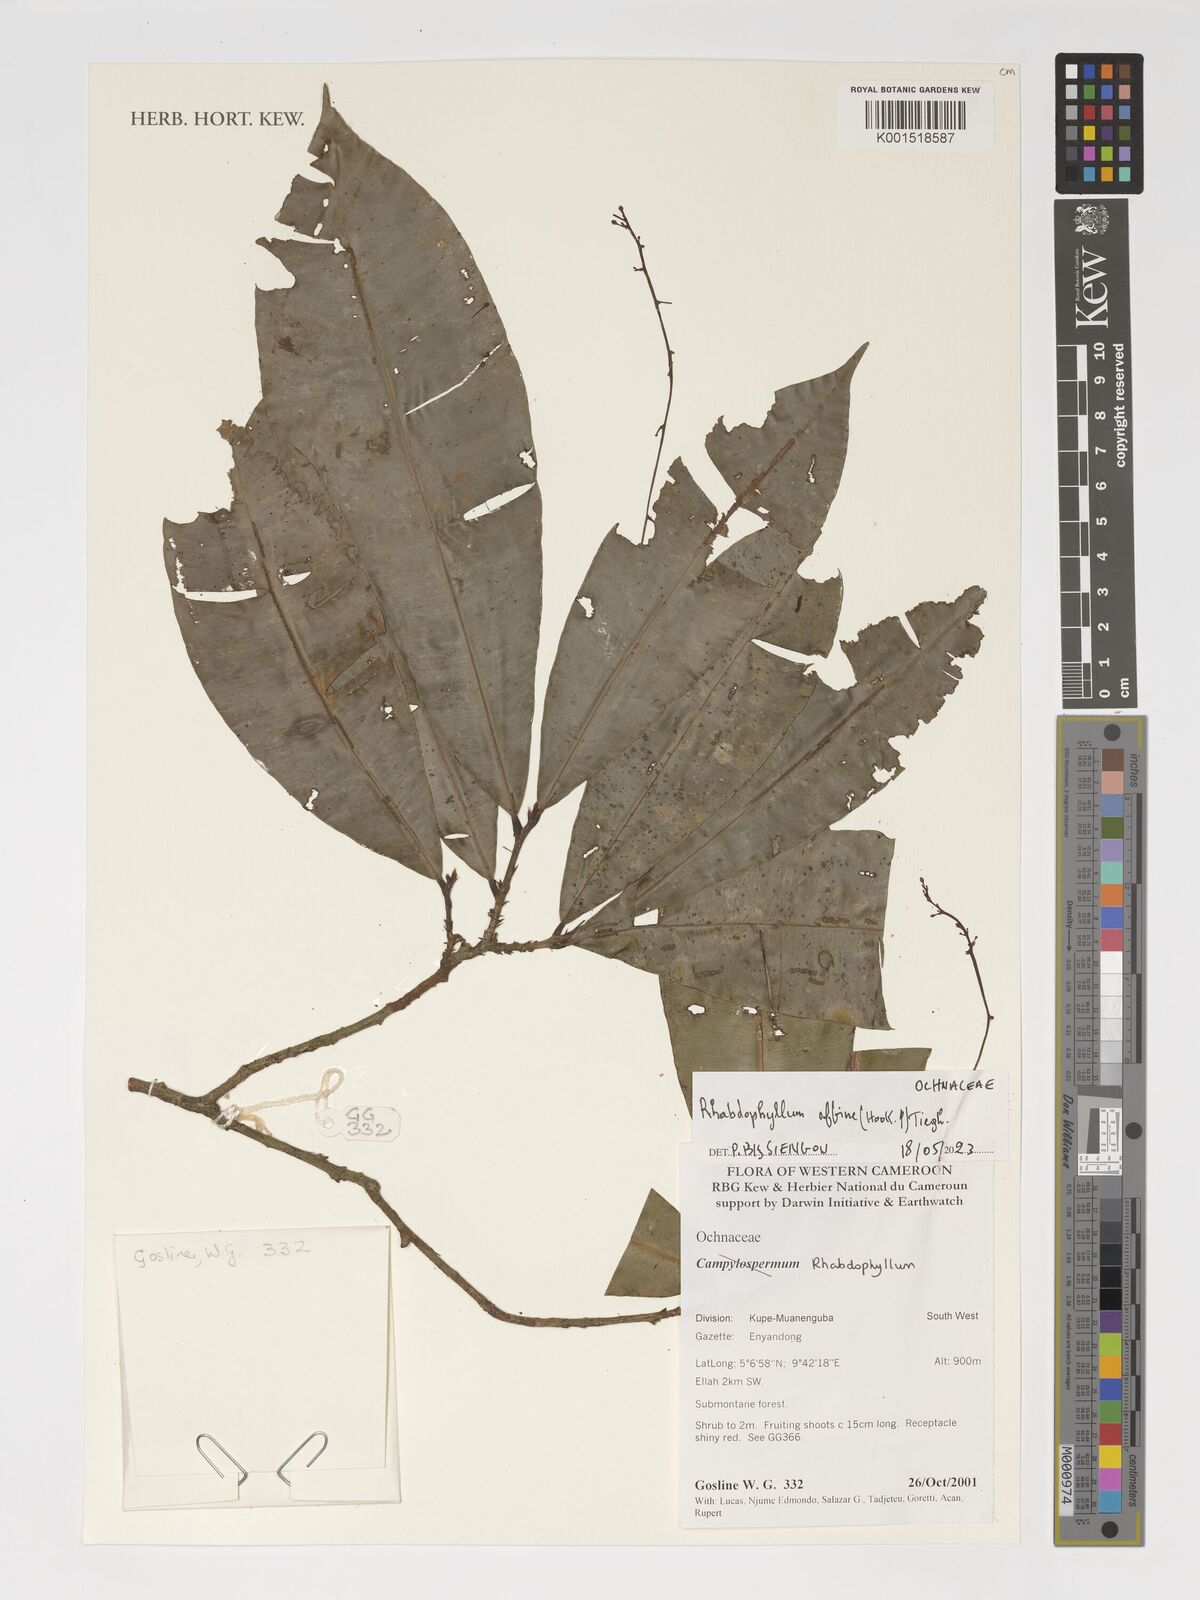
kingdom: Plantae
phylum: Tracheophyta
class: Magnoliopsida
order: Malpighiales
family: Ochnaceae
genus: Rhabdophyllum
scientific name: Rhabdophyllum affine
